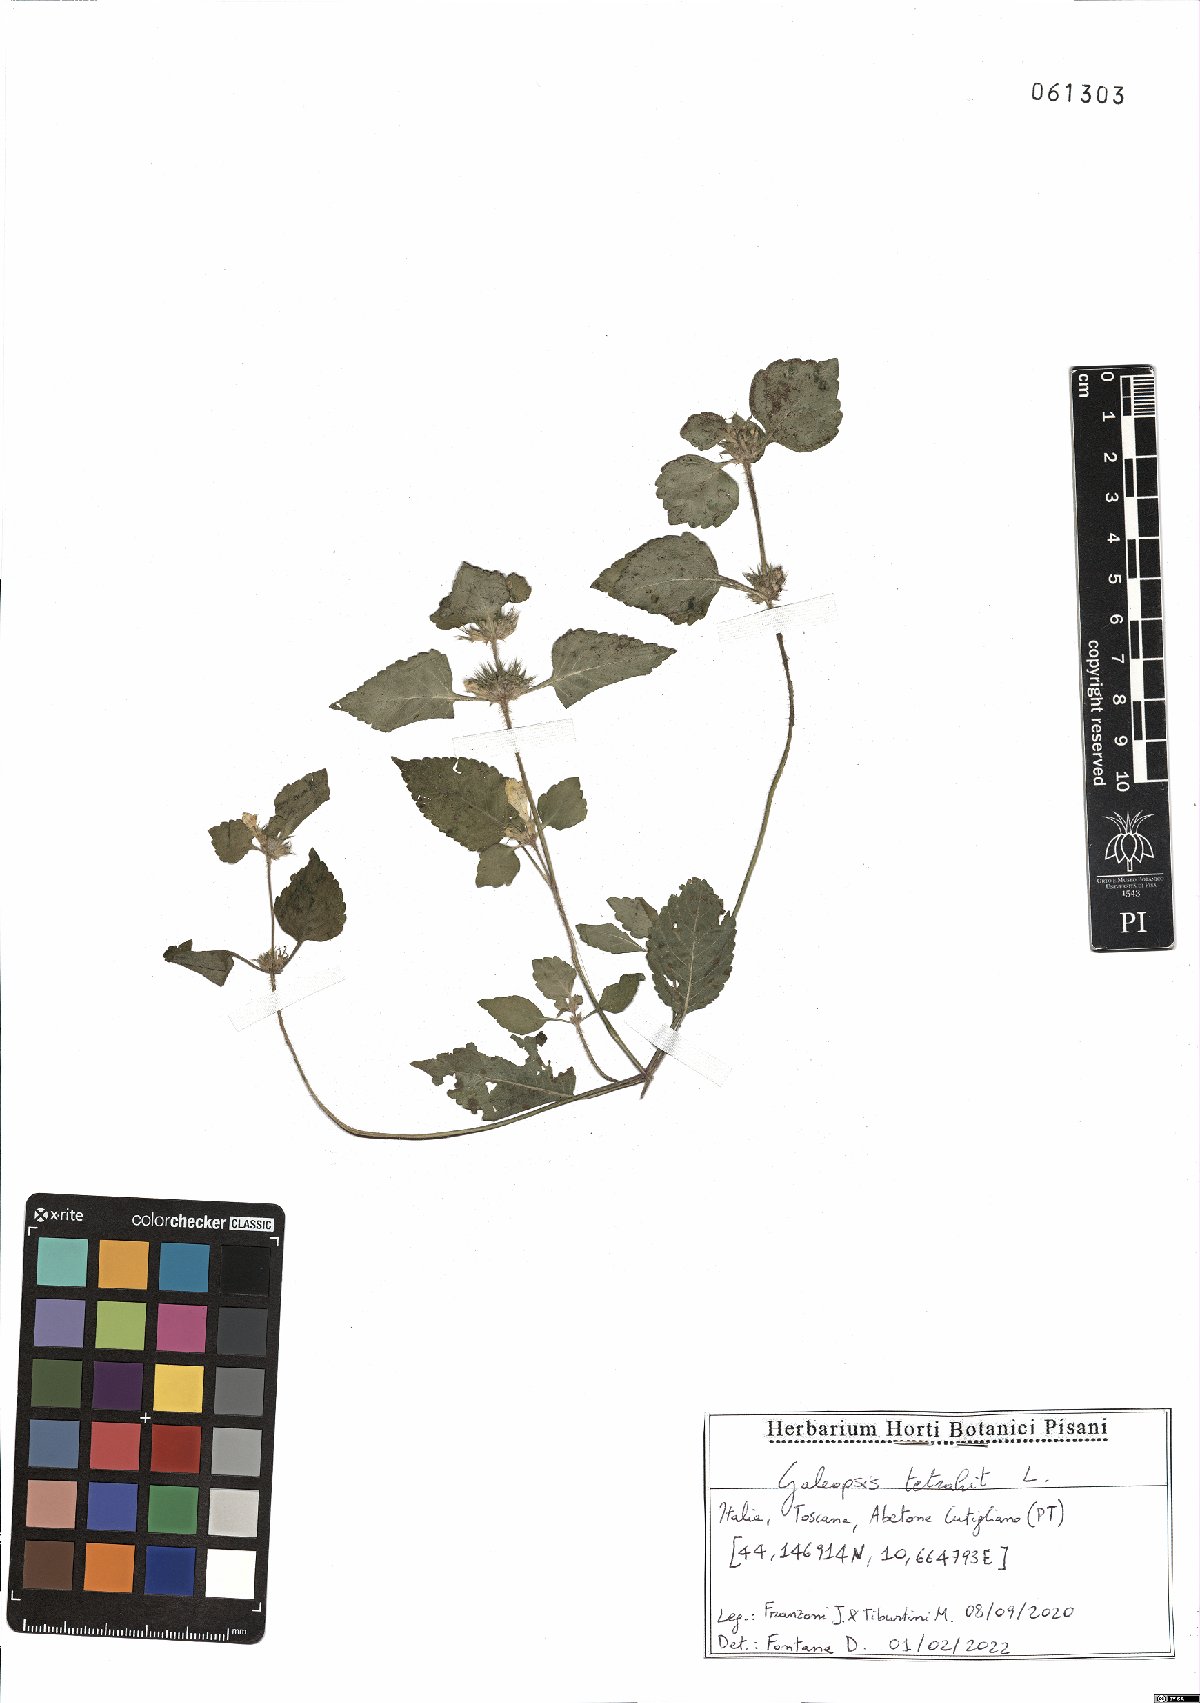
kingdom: Plantae
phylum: Tracheophyta
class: Magnoliopsida
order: Lamiales
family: Lamiaceae
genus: Galeopsis
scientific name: Galeopsis tetrahit
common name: Common hemp-nettle
